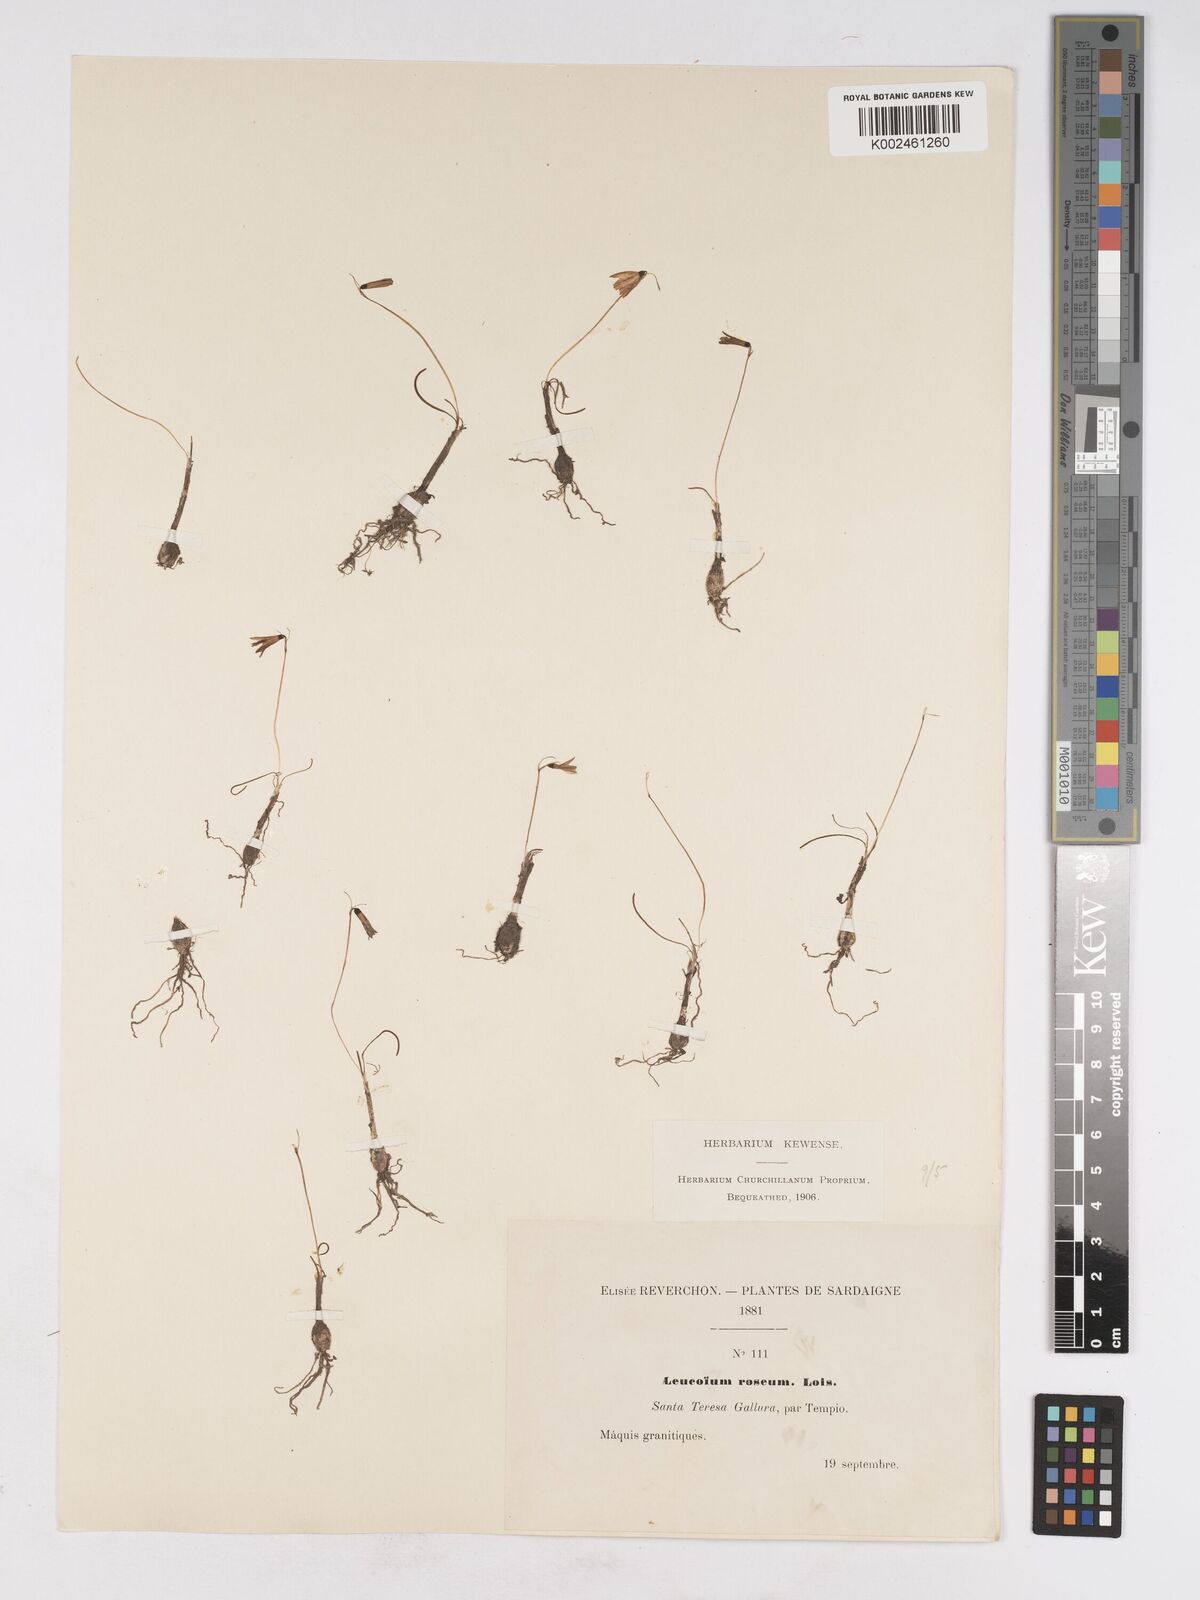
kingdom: Plantae
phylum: Tracheophyta
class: Liliopsida
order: Asparagales
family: Amaryllidaceae
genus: Acis
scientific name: Acis rosea
